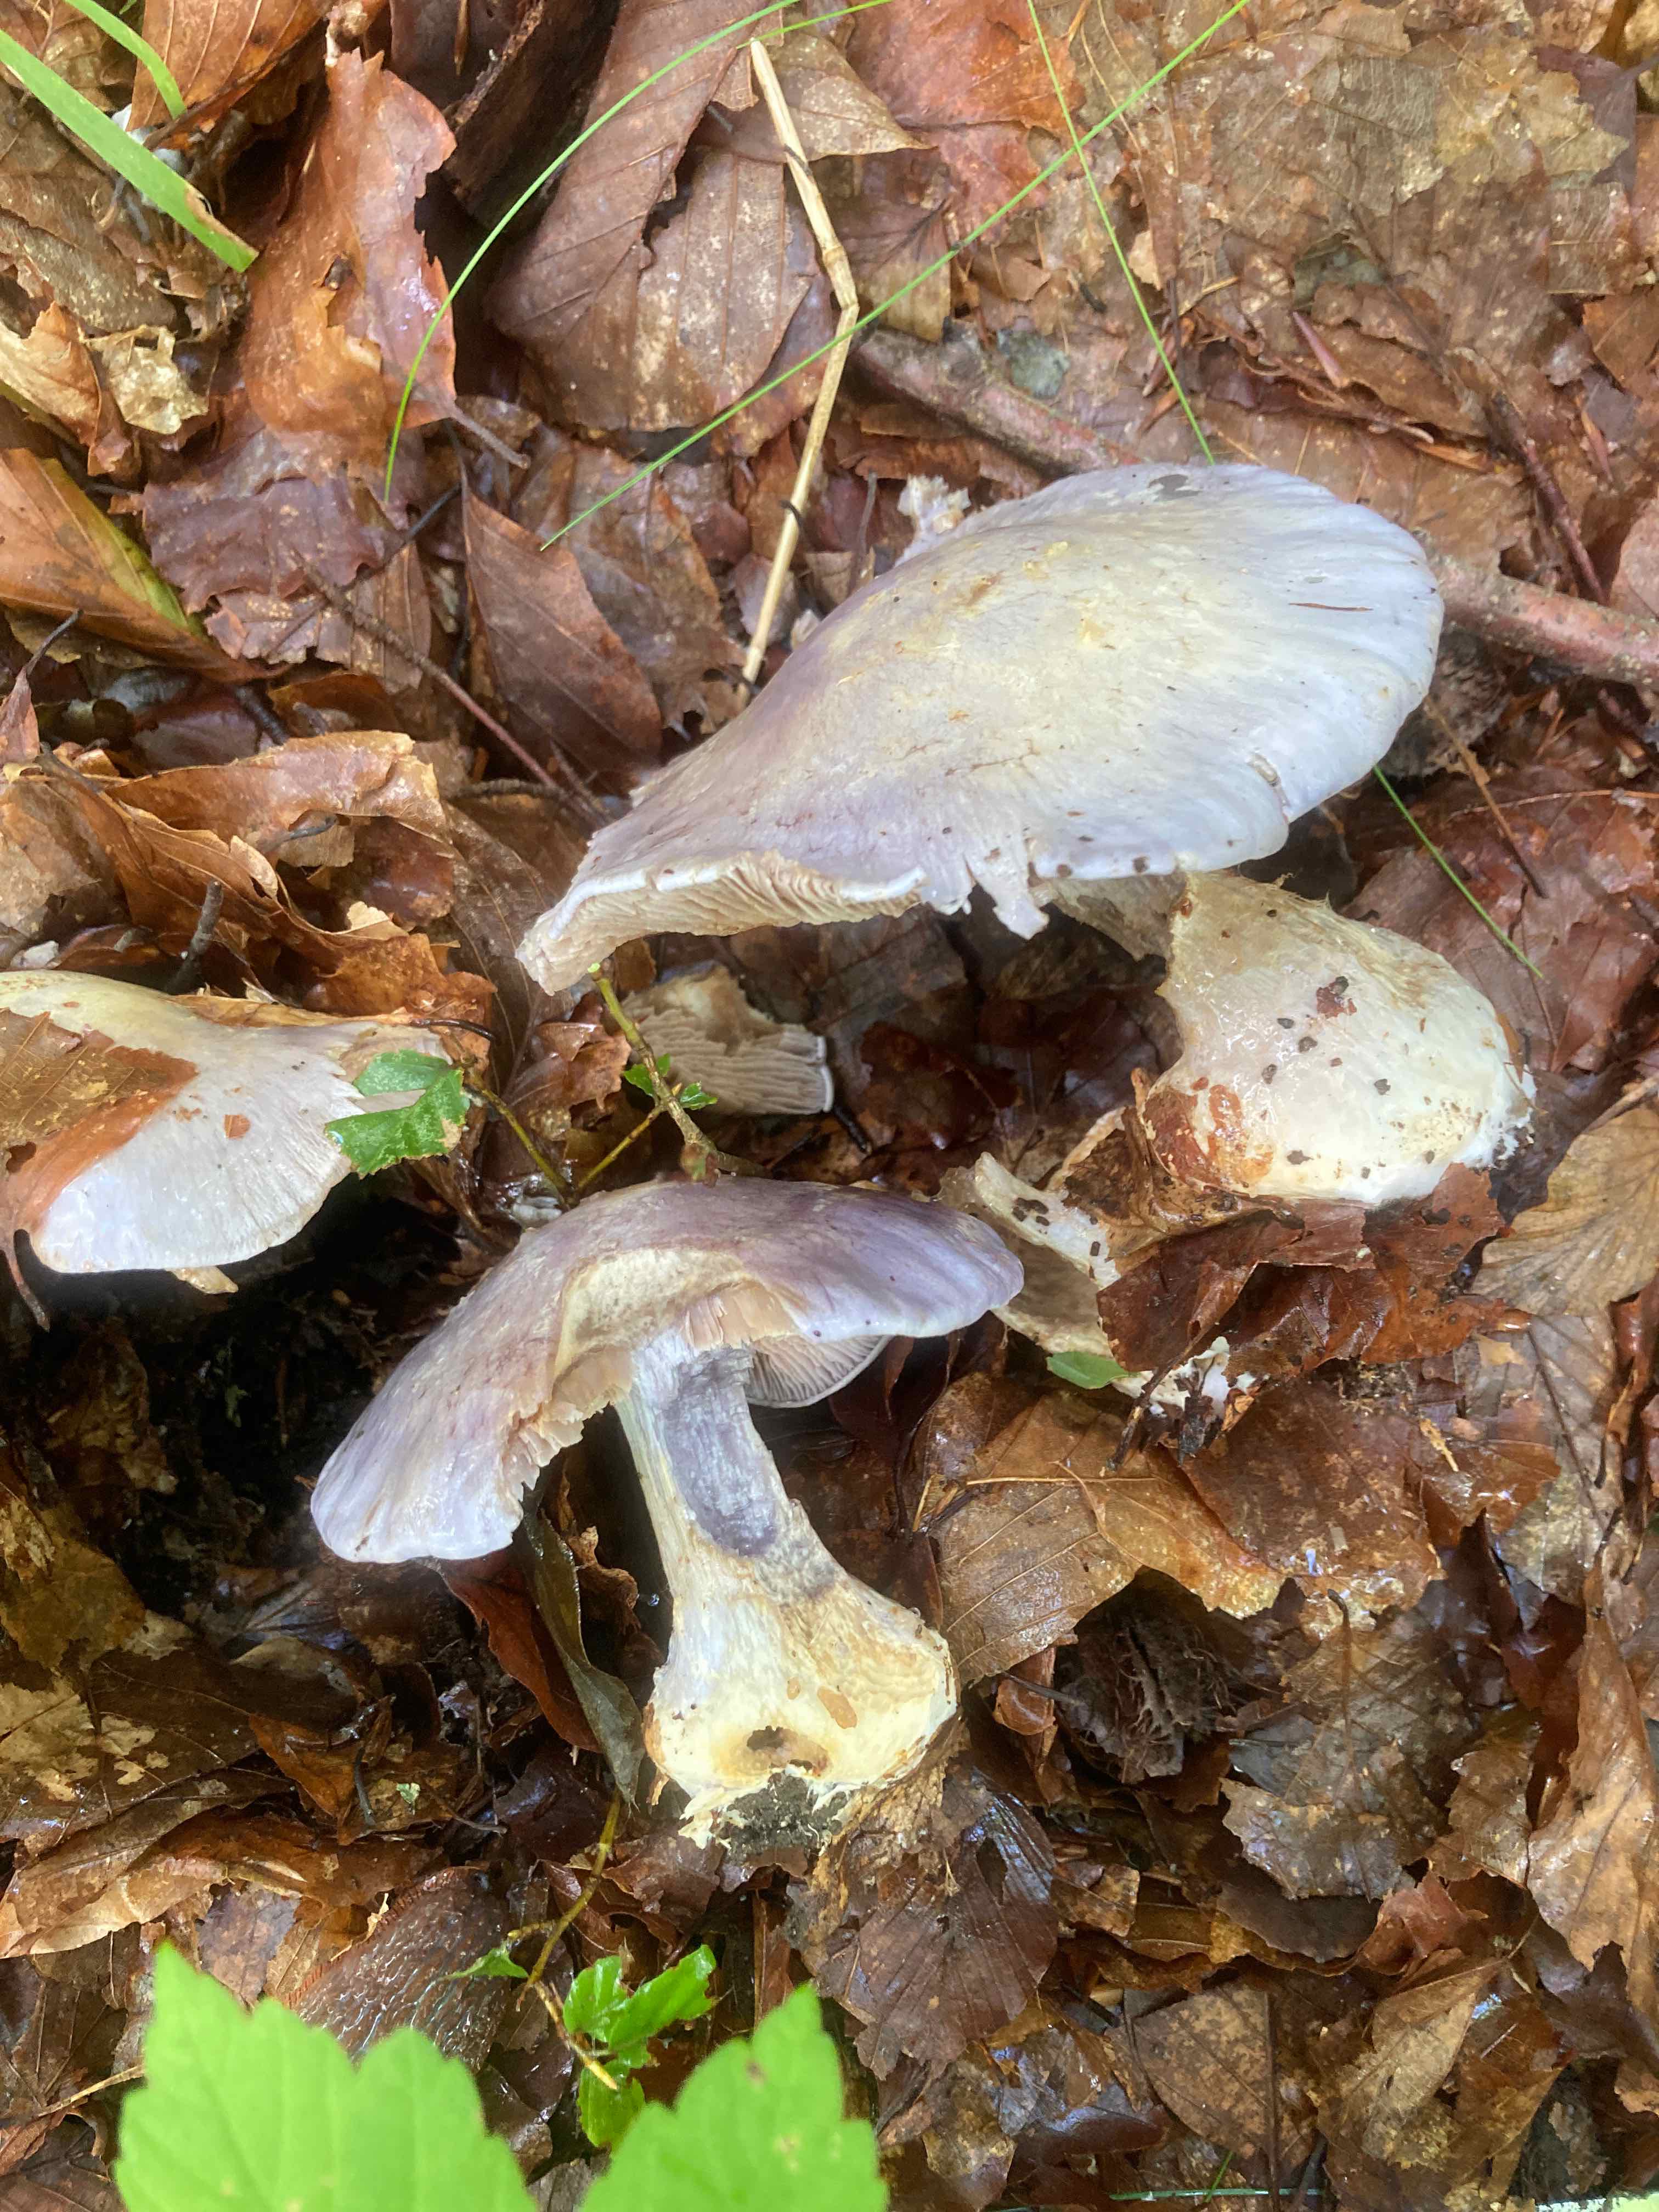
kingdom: Fungi
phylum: Basidiomycota
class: Agaricomycetes
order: Agaricales
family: Cortinariaceae
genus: Cortinarius
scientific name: Cortinarius caerulescens
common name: blåkødet slørhat
